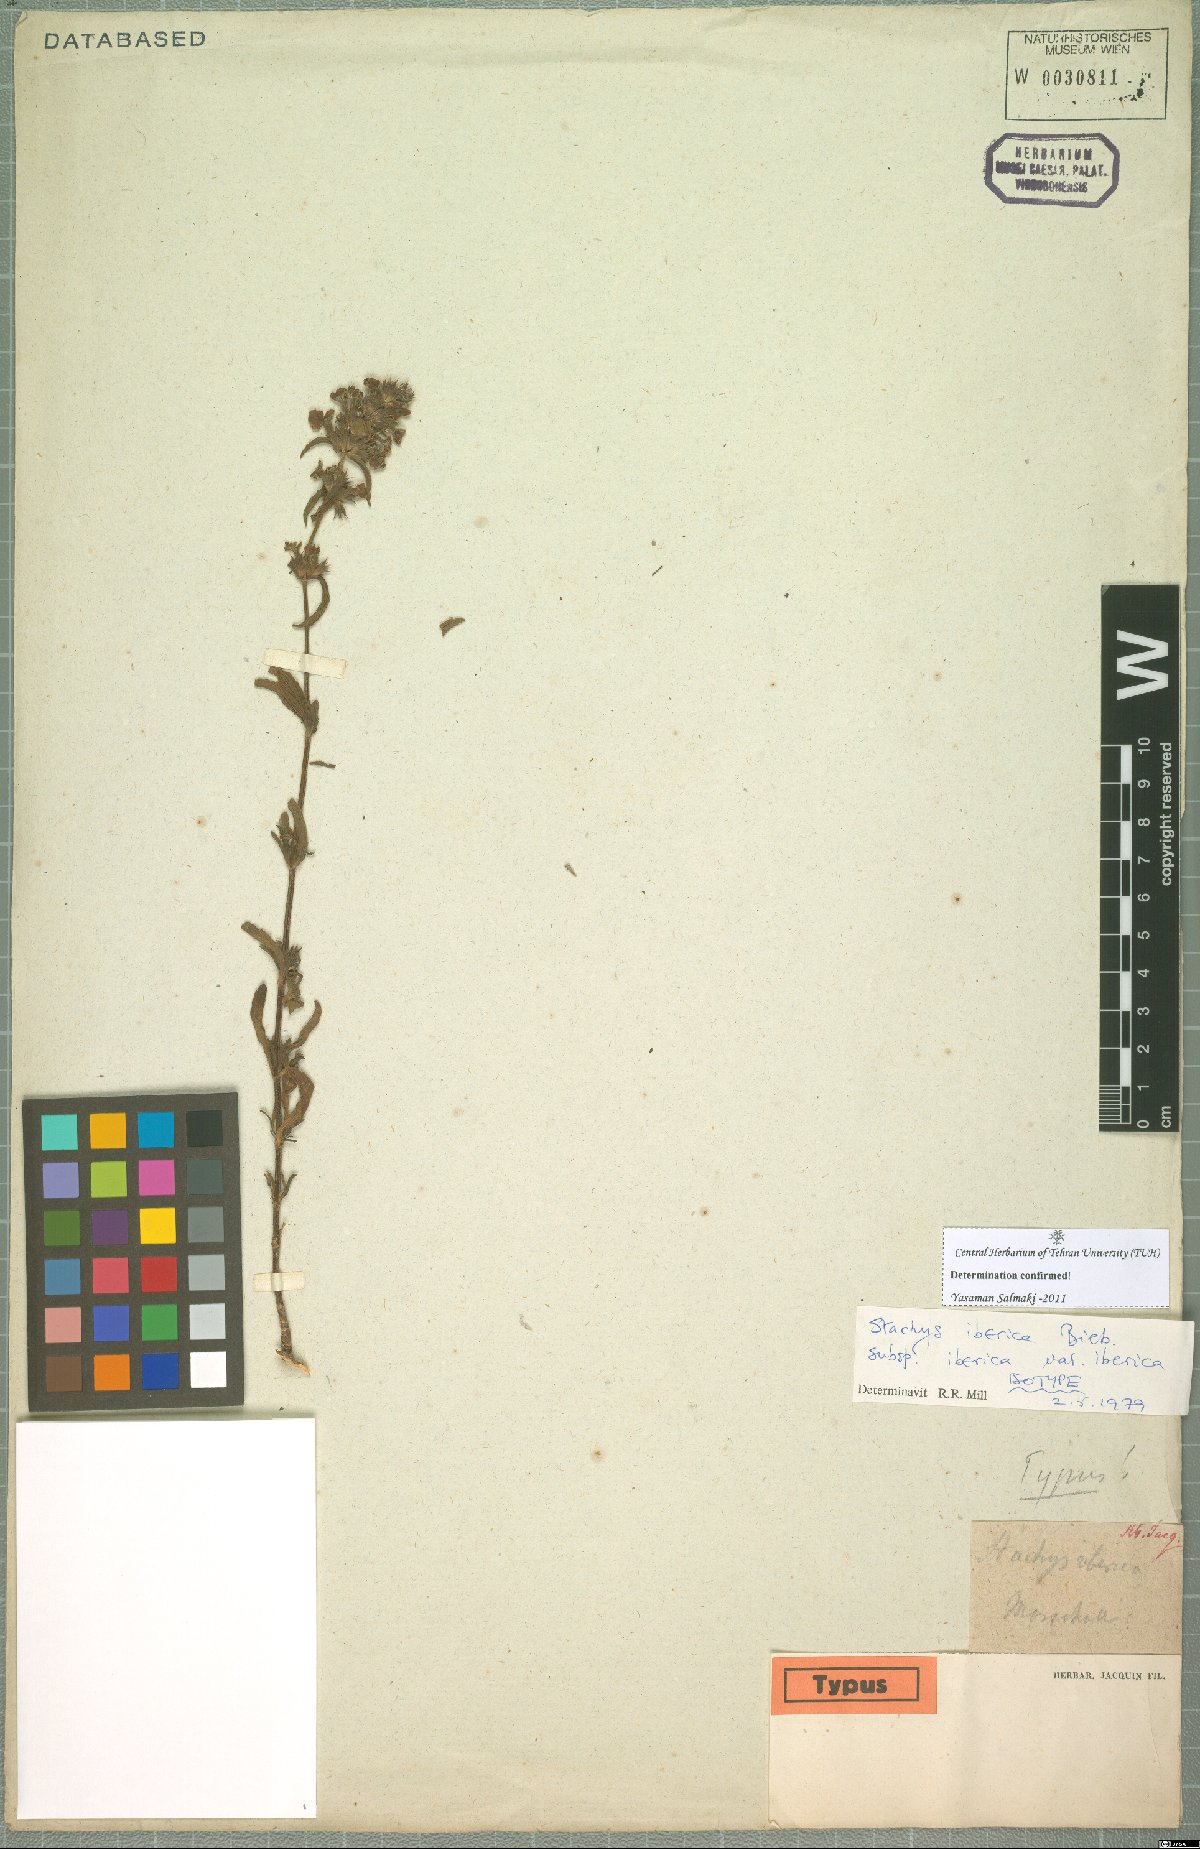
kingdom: Plantae
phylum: Tracheophyta
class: Magnoliopsida
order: Lamiales
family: Lamiaceae
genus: Stachys
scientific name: Stachys iberica
